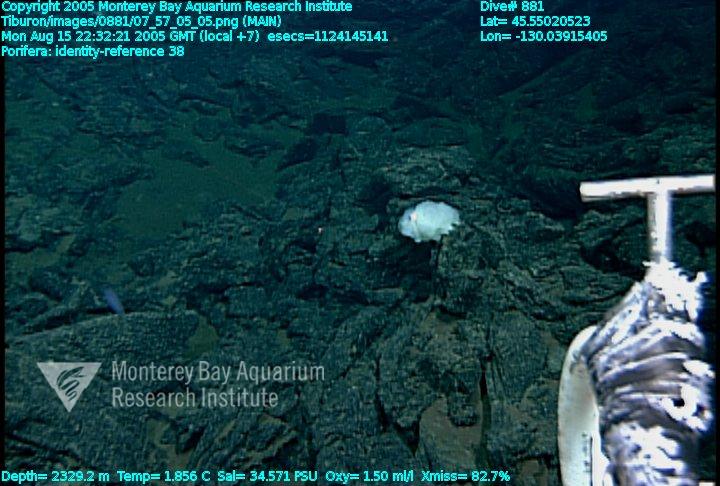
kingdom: Animalia
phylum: Porifera
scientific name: Porifera
